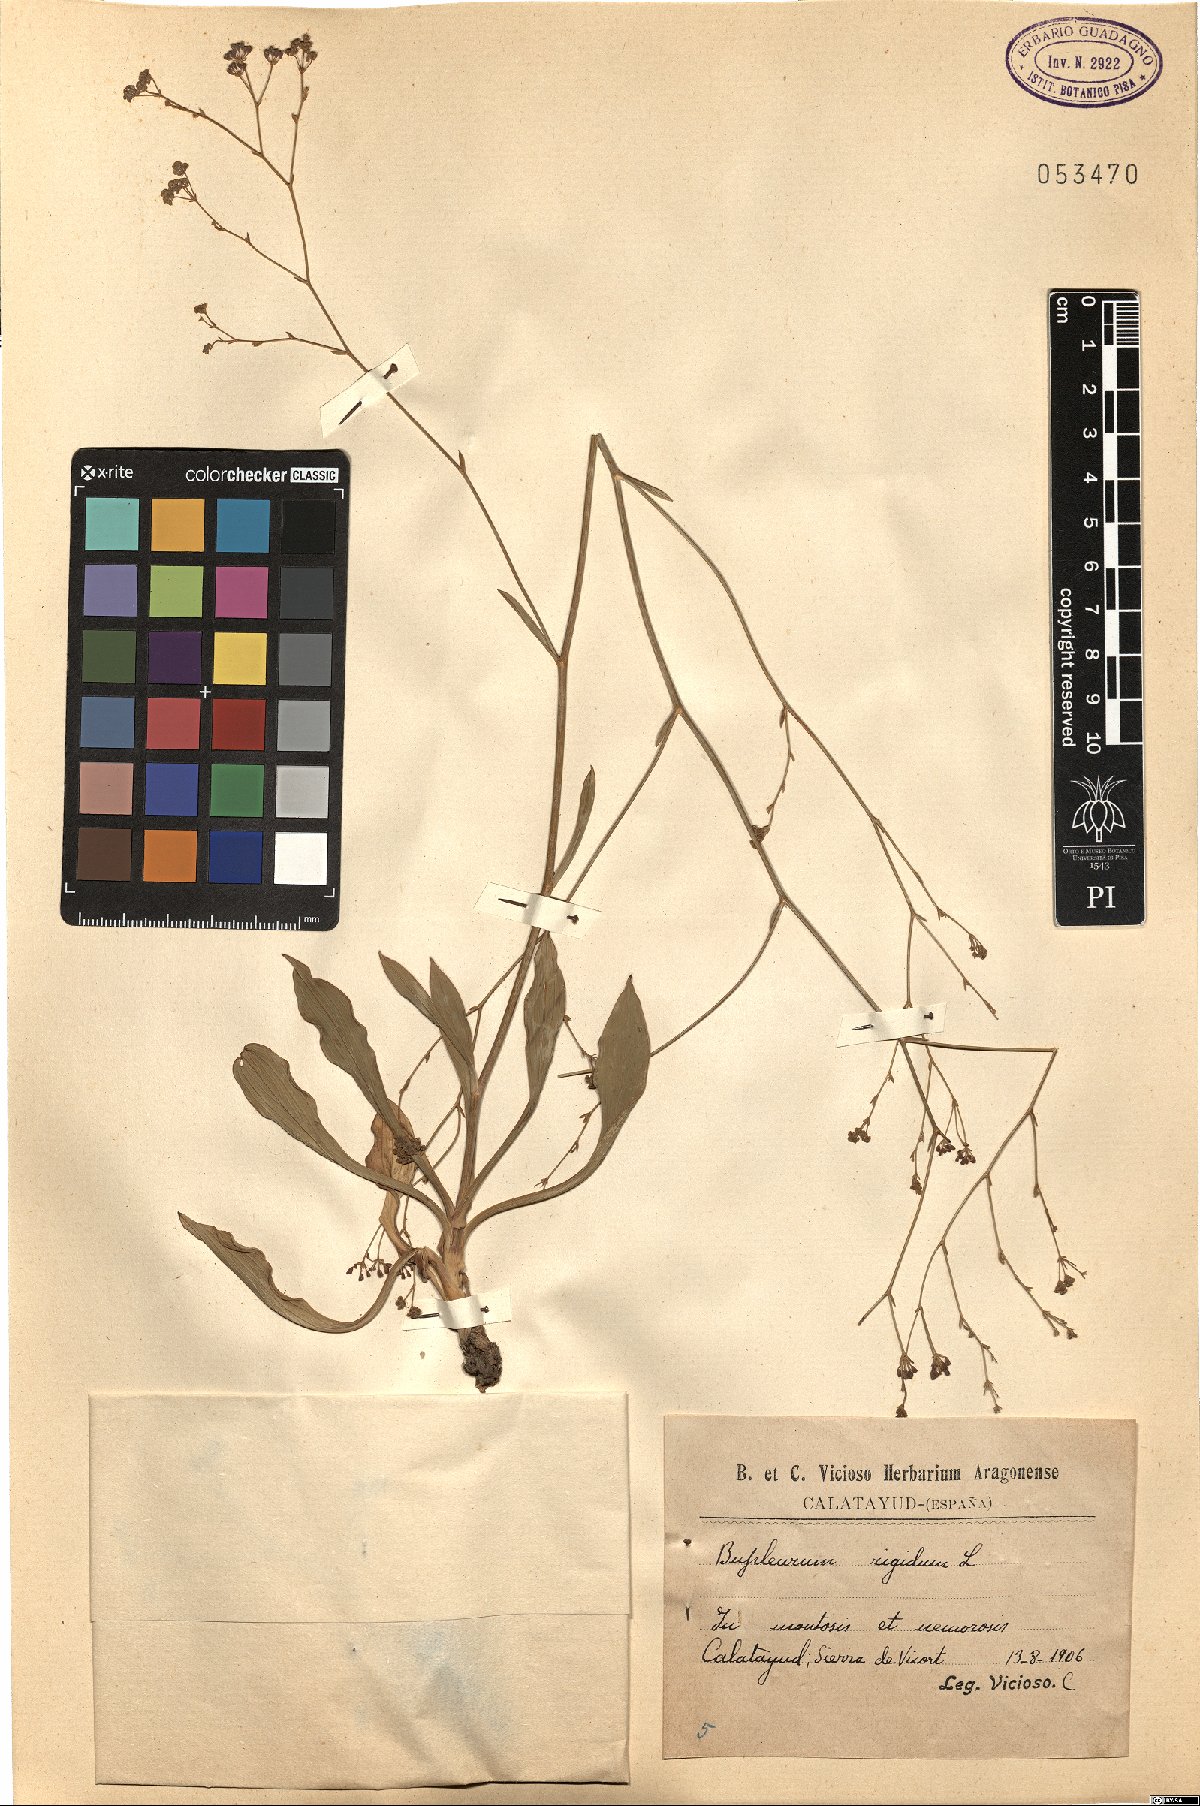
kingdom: Plantae
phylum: Tracheophyta
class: Magnoliopsida
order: Apiales
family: Apiaceae
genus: Bupleurum
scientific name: Bupleurum rigidum
